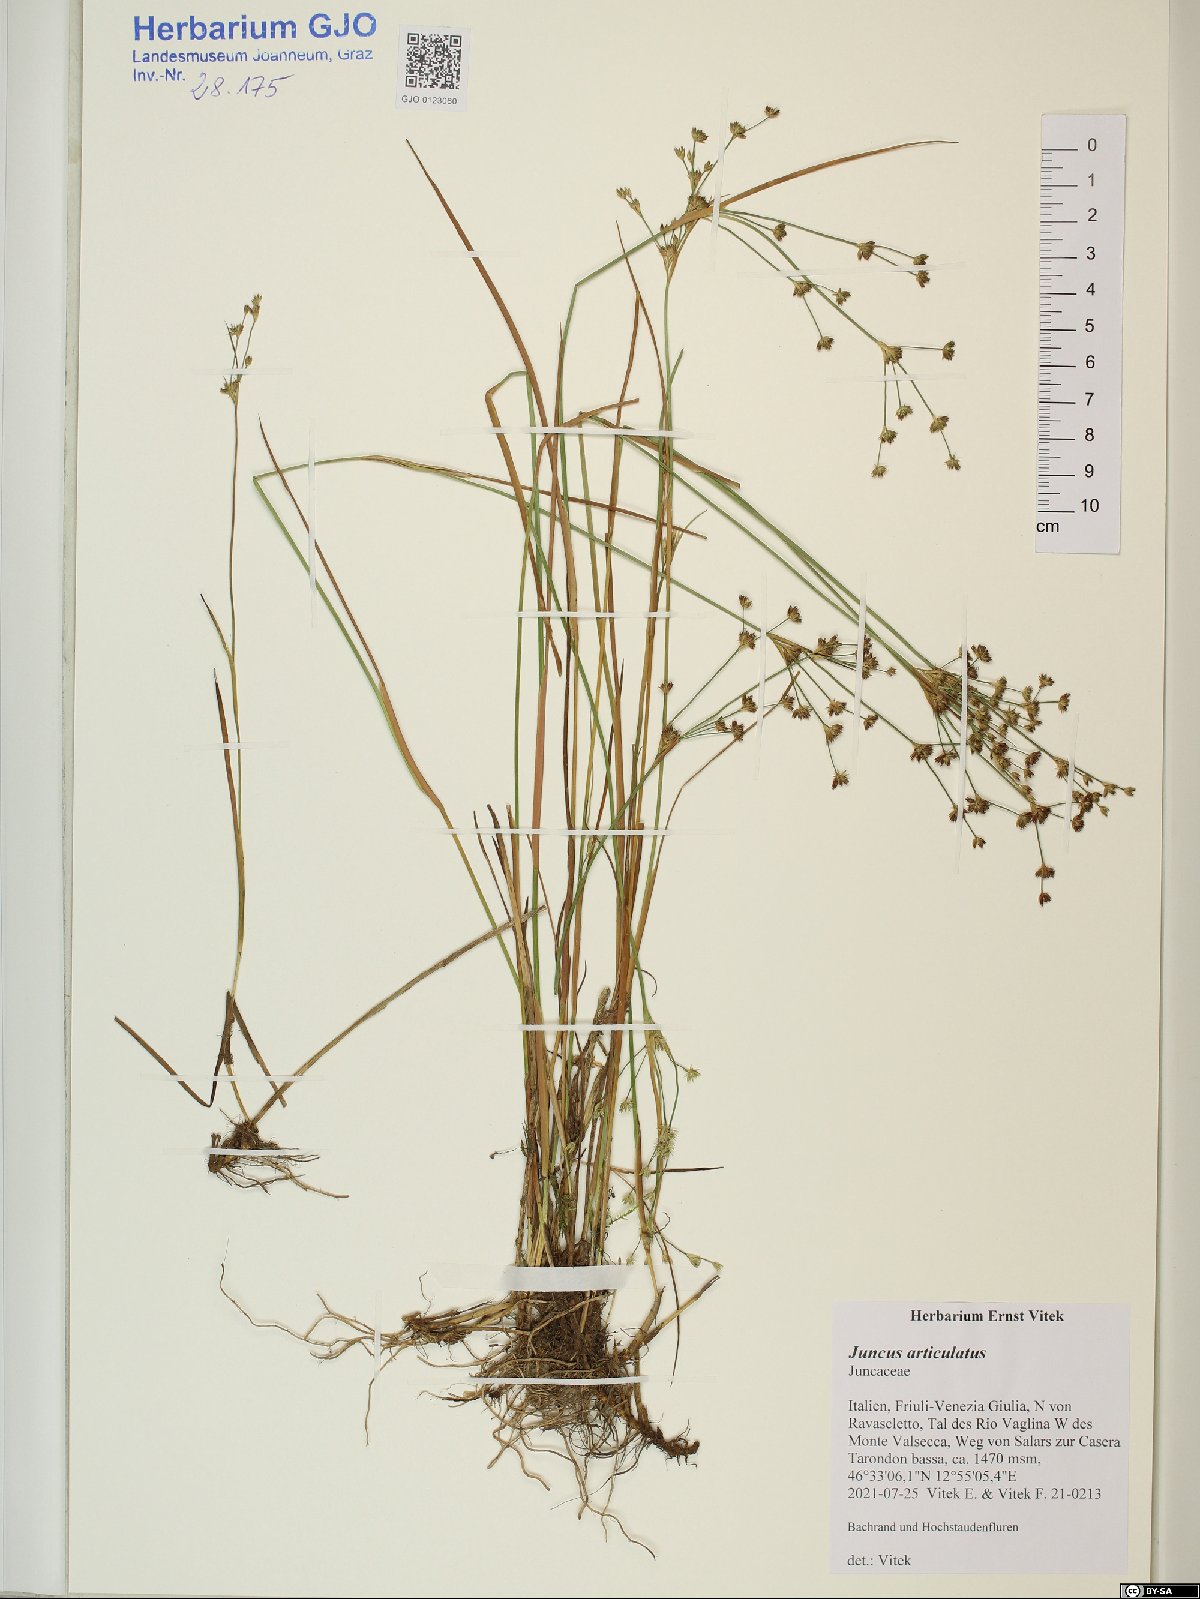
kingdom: Plantae
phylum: Tracheophyta
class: Liliopsida
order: Poales
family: Juncaceae
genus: Juncus
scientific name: Juncus articulatus
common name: Jointed rush
